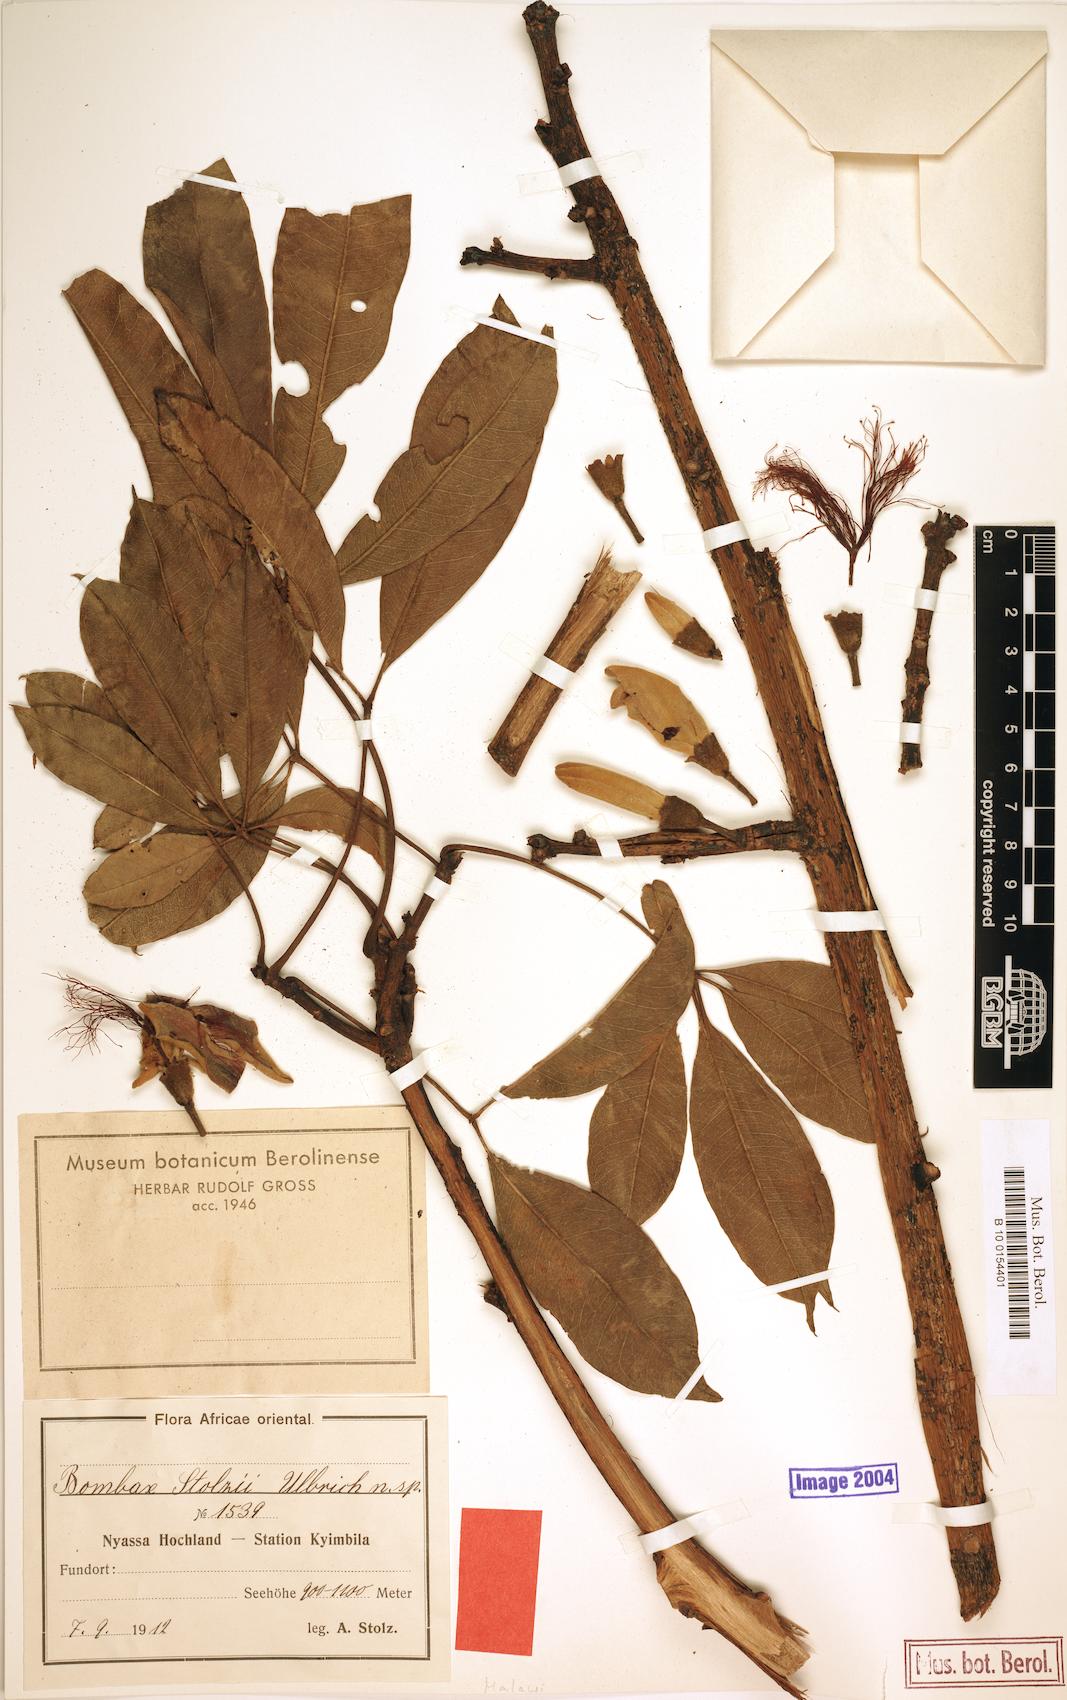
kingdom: Plantae
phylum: Tracheophyta
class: Magnoliopsida
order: Malvales
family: Malvaceae
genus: Rhodognaphalon
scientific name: Rhodognaphalon stolzii
